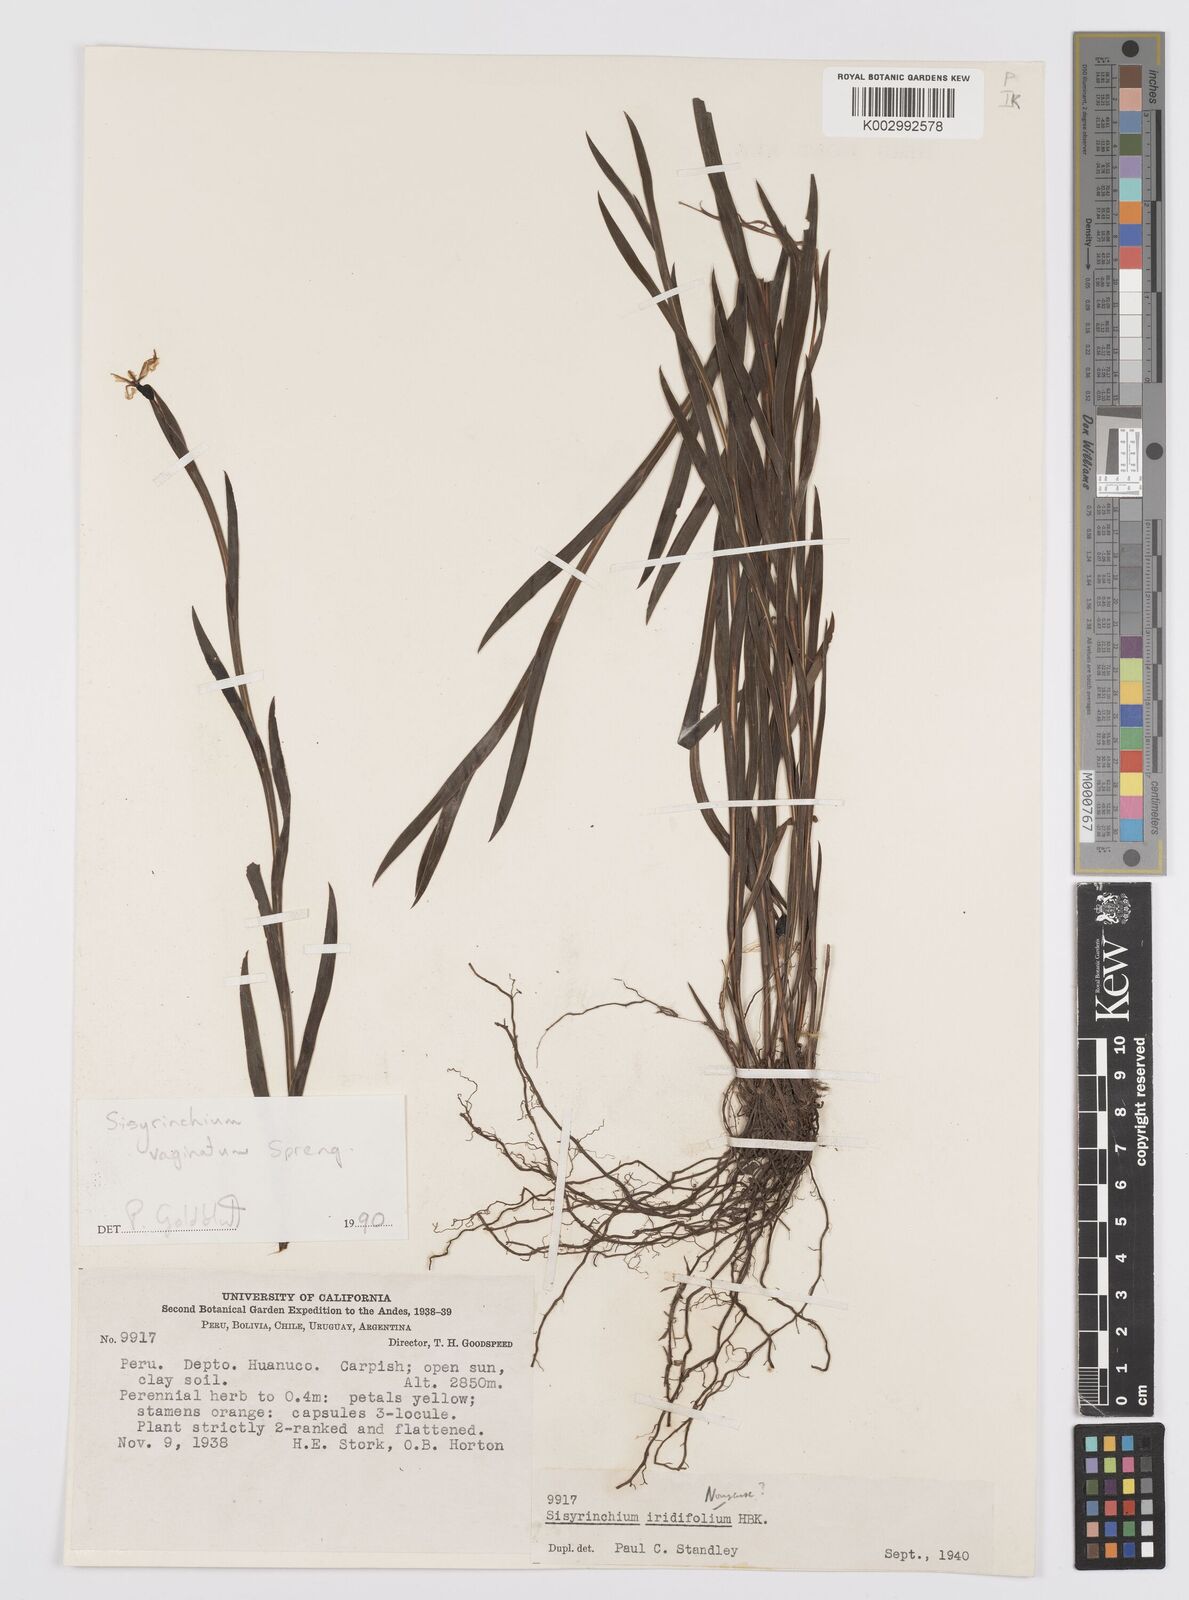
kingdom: Plantae
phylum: Tracheophyta
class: Liliopsida
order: Asparagales
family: Iridaceae
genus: Sisyrinchium
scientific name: Sisyrinchium vaginatum
